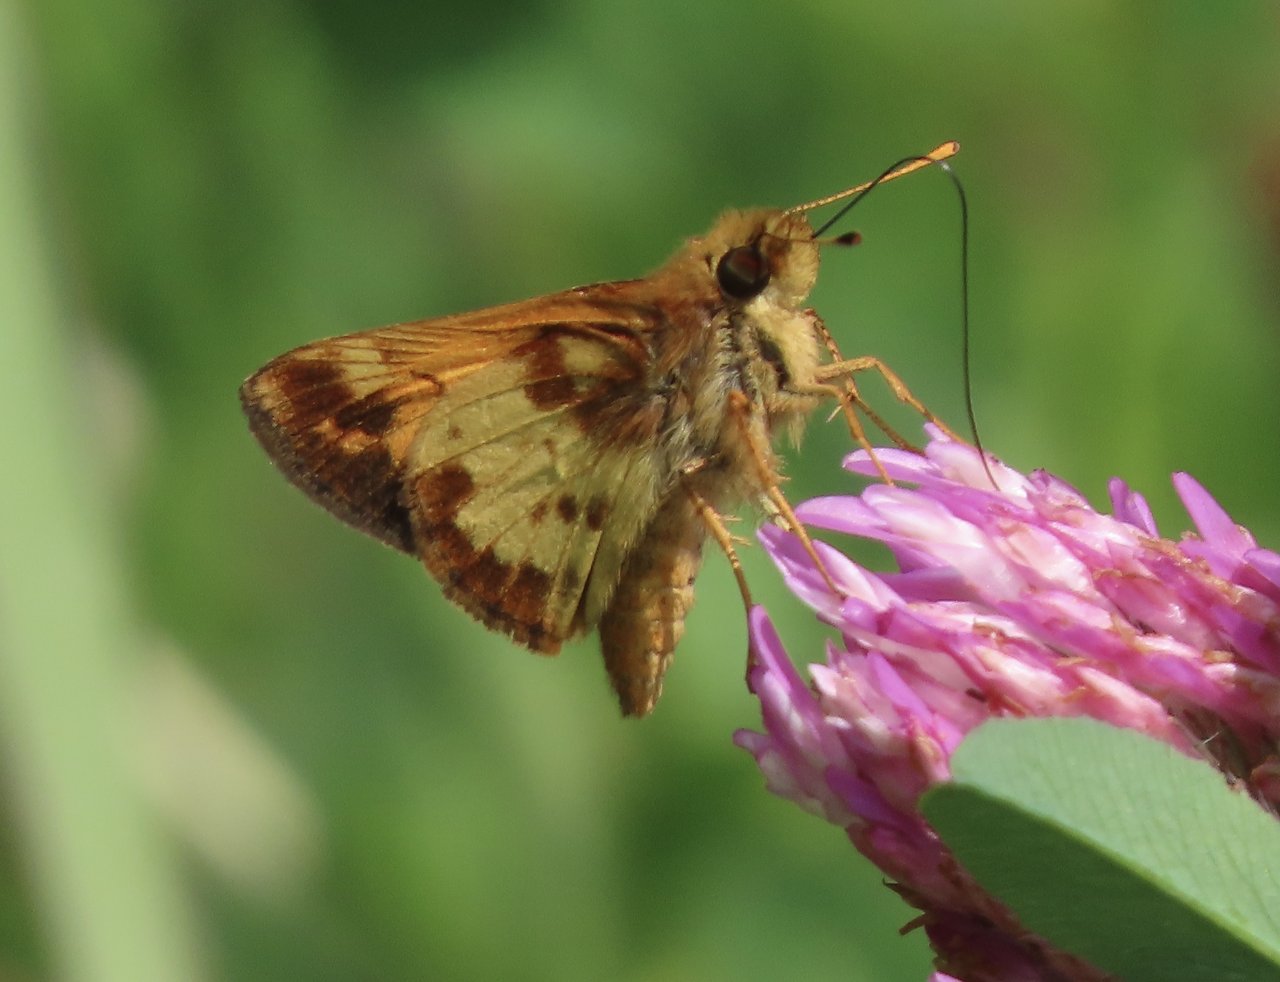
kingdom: Animalia
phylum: Arthropoda
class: Insecta
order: Lepidoptera
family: Hesperiidae
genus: Lon
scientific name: Lon zabulon
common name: Zabulon Skipper
